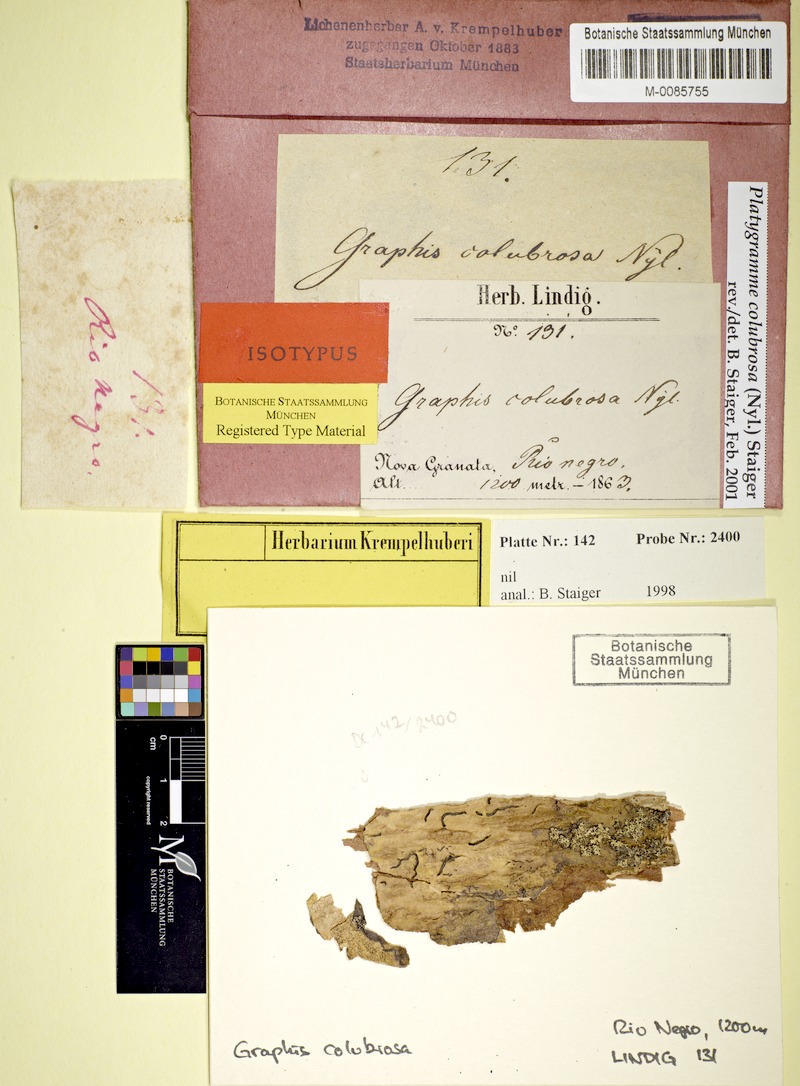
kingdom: Fungi
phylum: Ascomycota
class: Lecanoromycetes
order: Ostropales
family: Graphidaceae
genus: Platygramme
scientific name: Platygramme colubrosa
